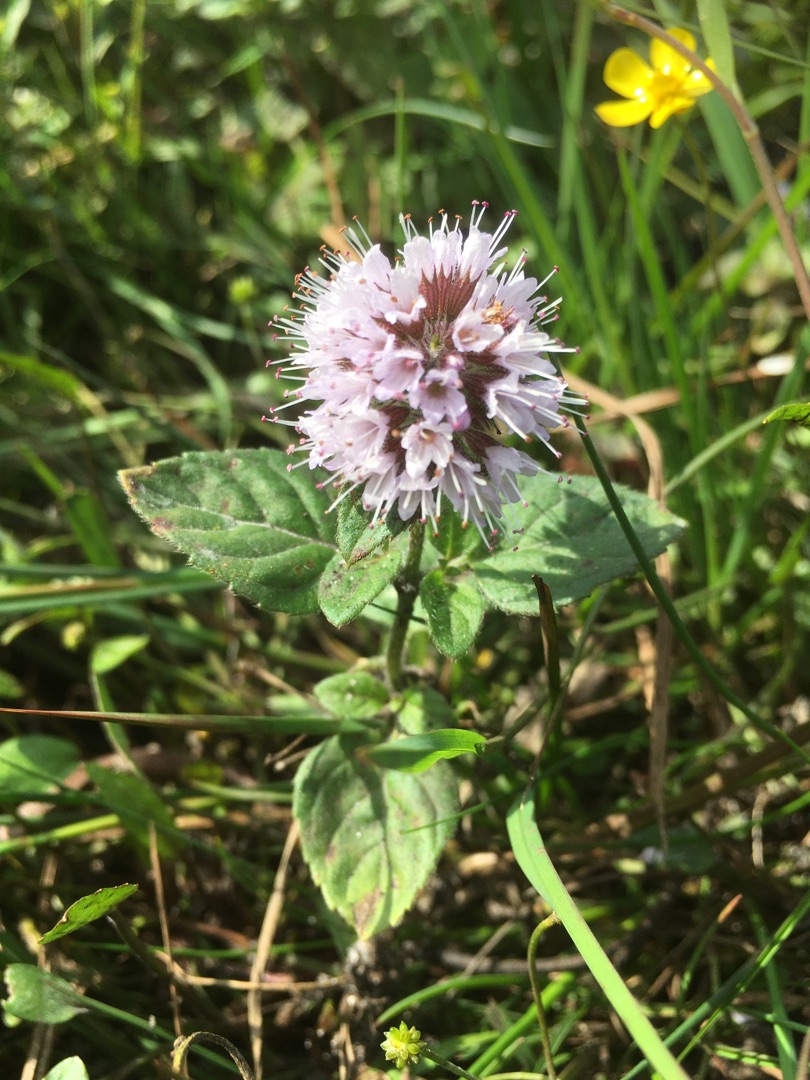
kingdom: Plantae
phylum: Tracheophyta
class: Magnoliopsida
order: Lamiales
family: Lamiaceae
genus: Mentha
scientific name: Mentha aquatica
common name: Vand-mynte
